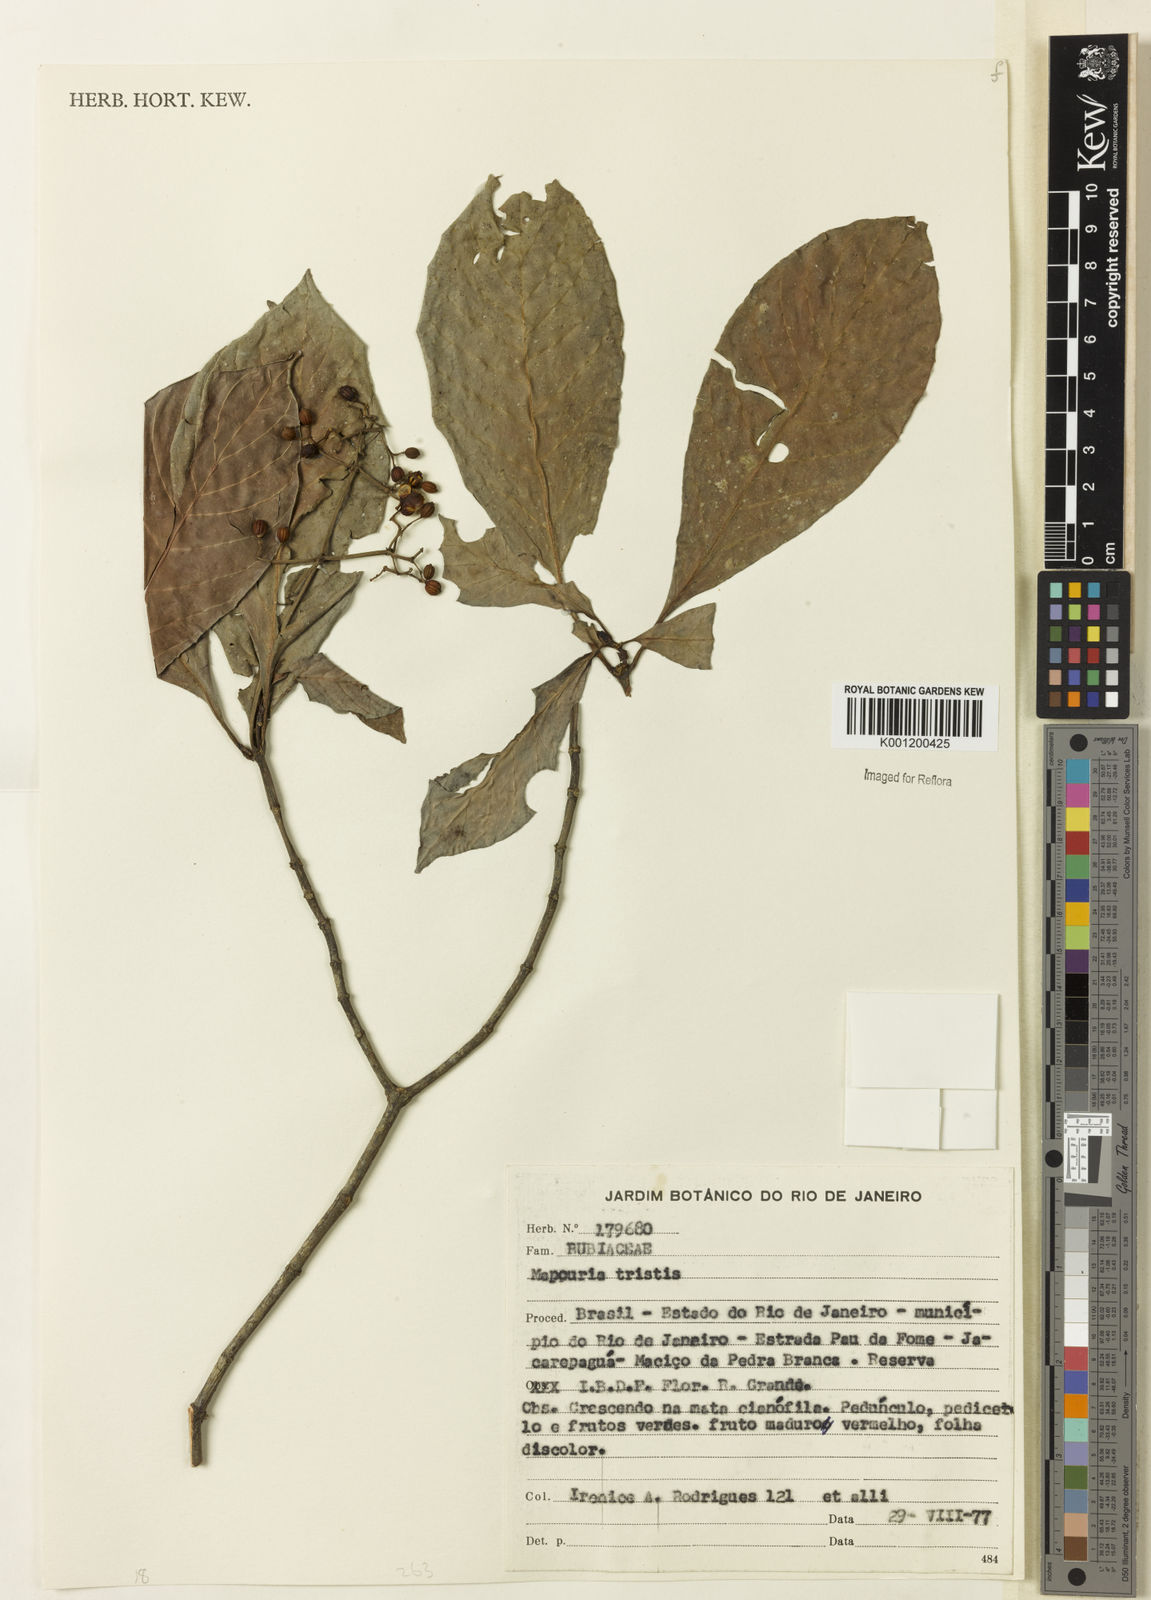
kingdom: Plantae
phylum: Tracheophyta
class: Magnoliopsida
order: Gentianales
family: Rubiaceae
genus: Psychotria
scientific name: Psychotria carthagenensis
